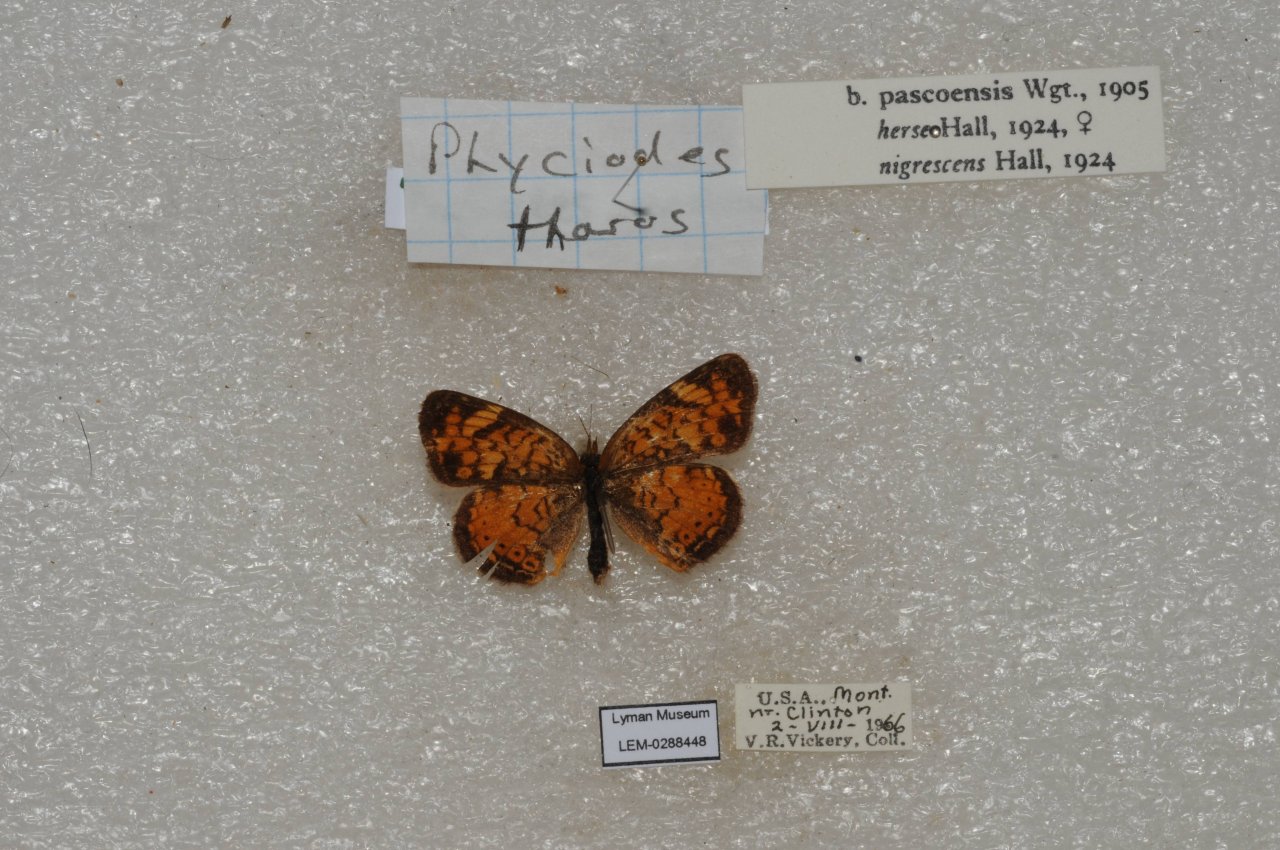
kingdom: Animalia
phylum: Arthropoda
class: Insecta
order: Lepidoptera
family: Nymphalidae
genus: Phyciodes
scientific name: Phyciodes tharos
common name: Pearl Crescent
